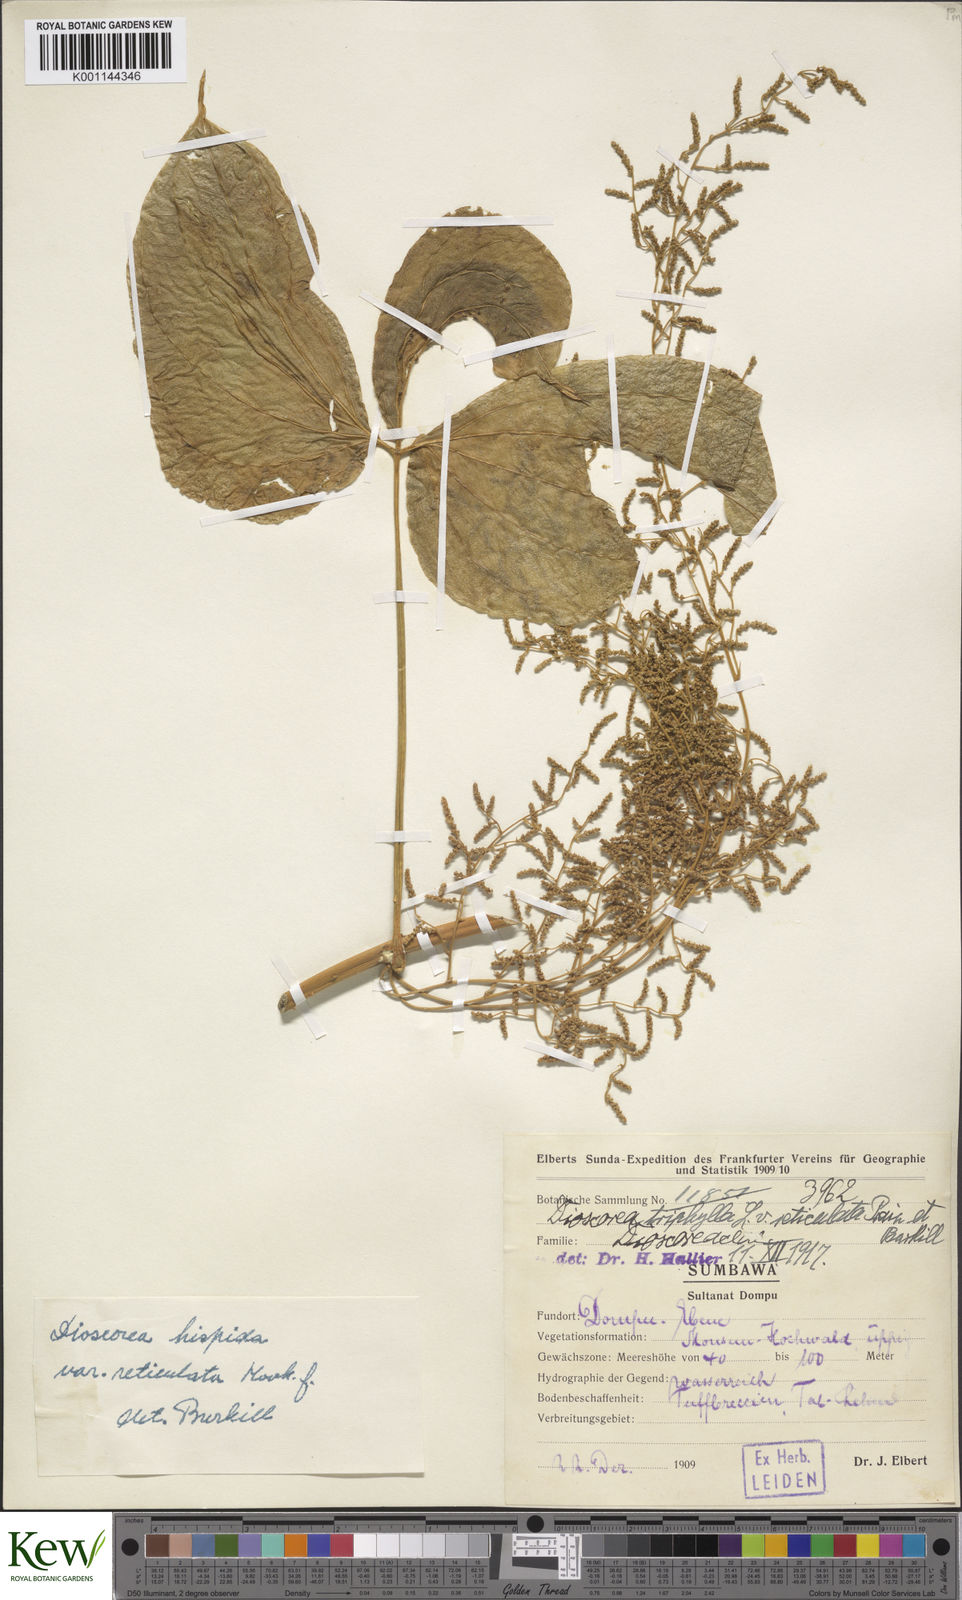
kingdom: Plantae
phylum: Tracheophyta
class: Liliopsida
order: Dioscoreales
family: Dioscoreaceae
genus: Dioscorea
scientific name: Dioscorea hispida
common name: Asiatic bitter yam
